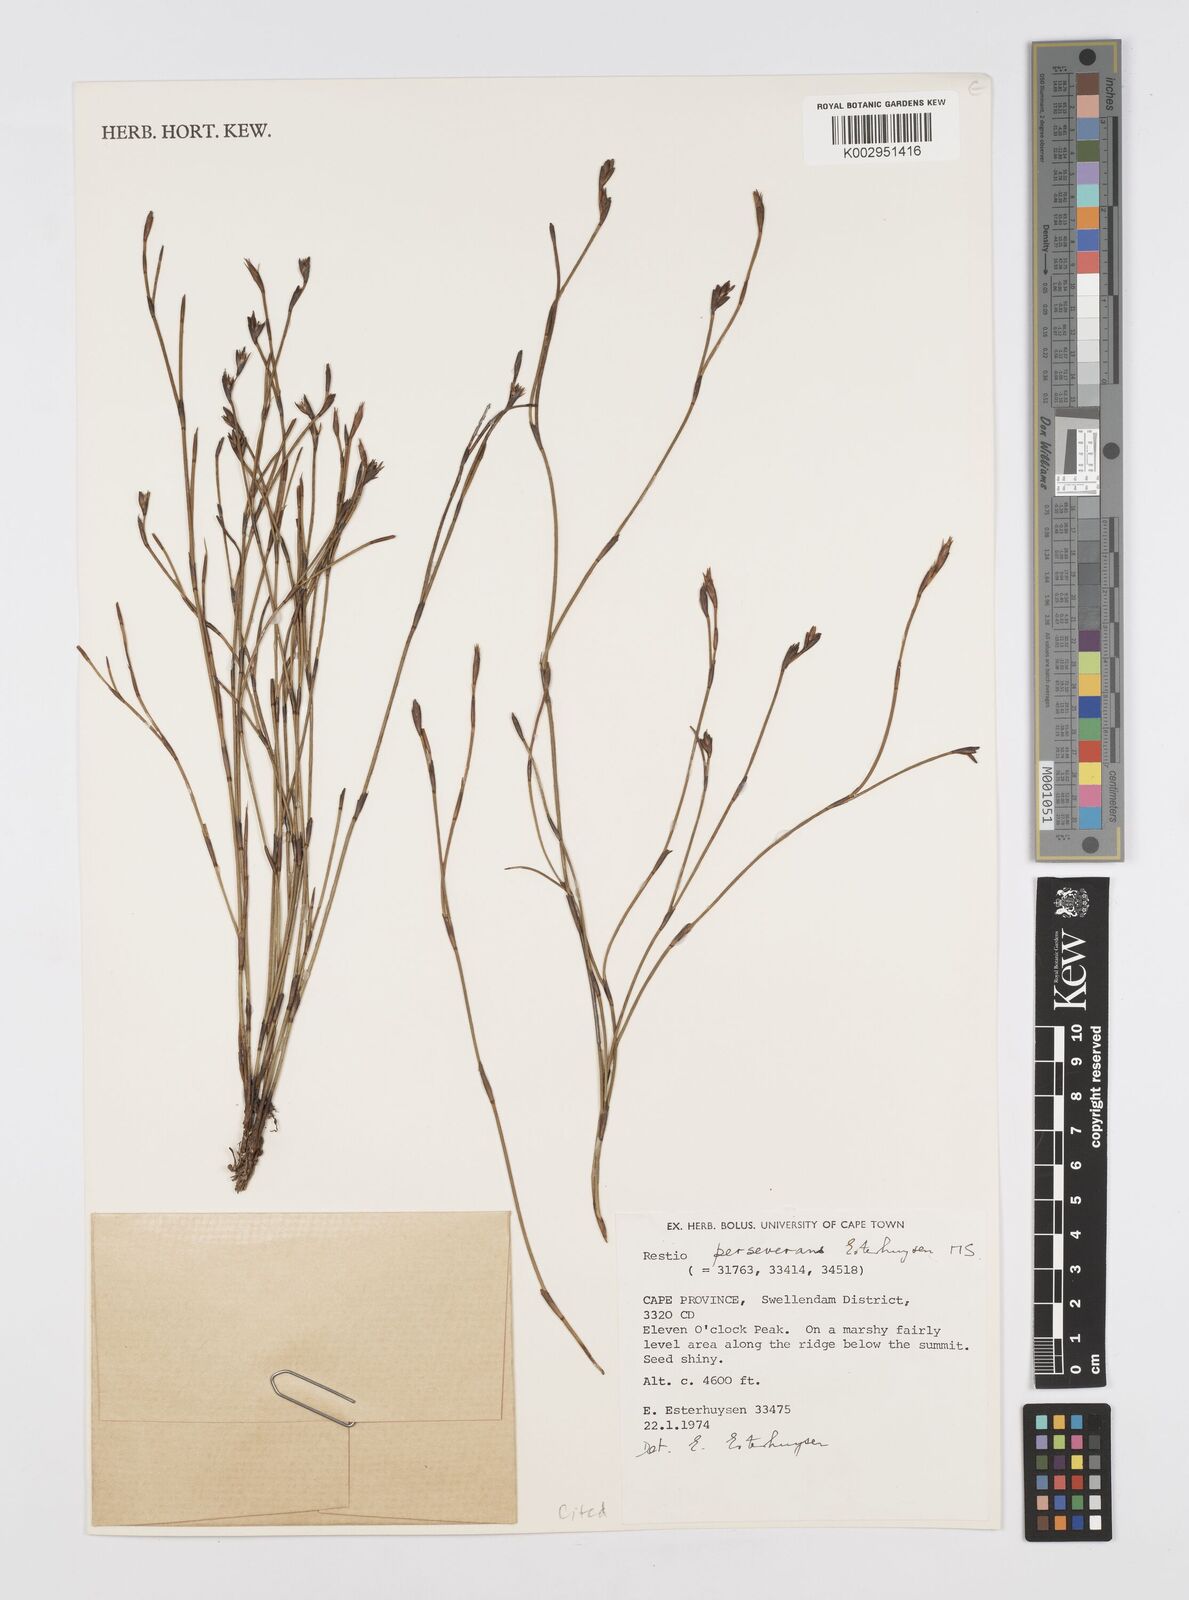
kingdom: Plantae
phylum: Tracheophyta
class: Liliopsida
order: Poales
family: Restionaceae
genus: Restio
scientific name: Restio perseverans
